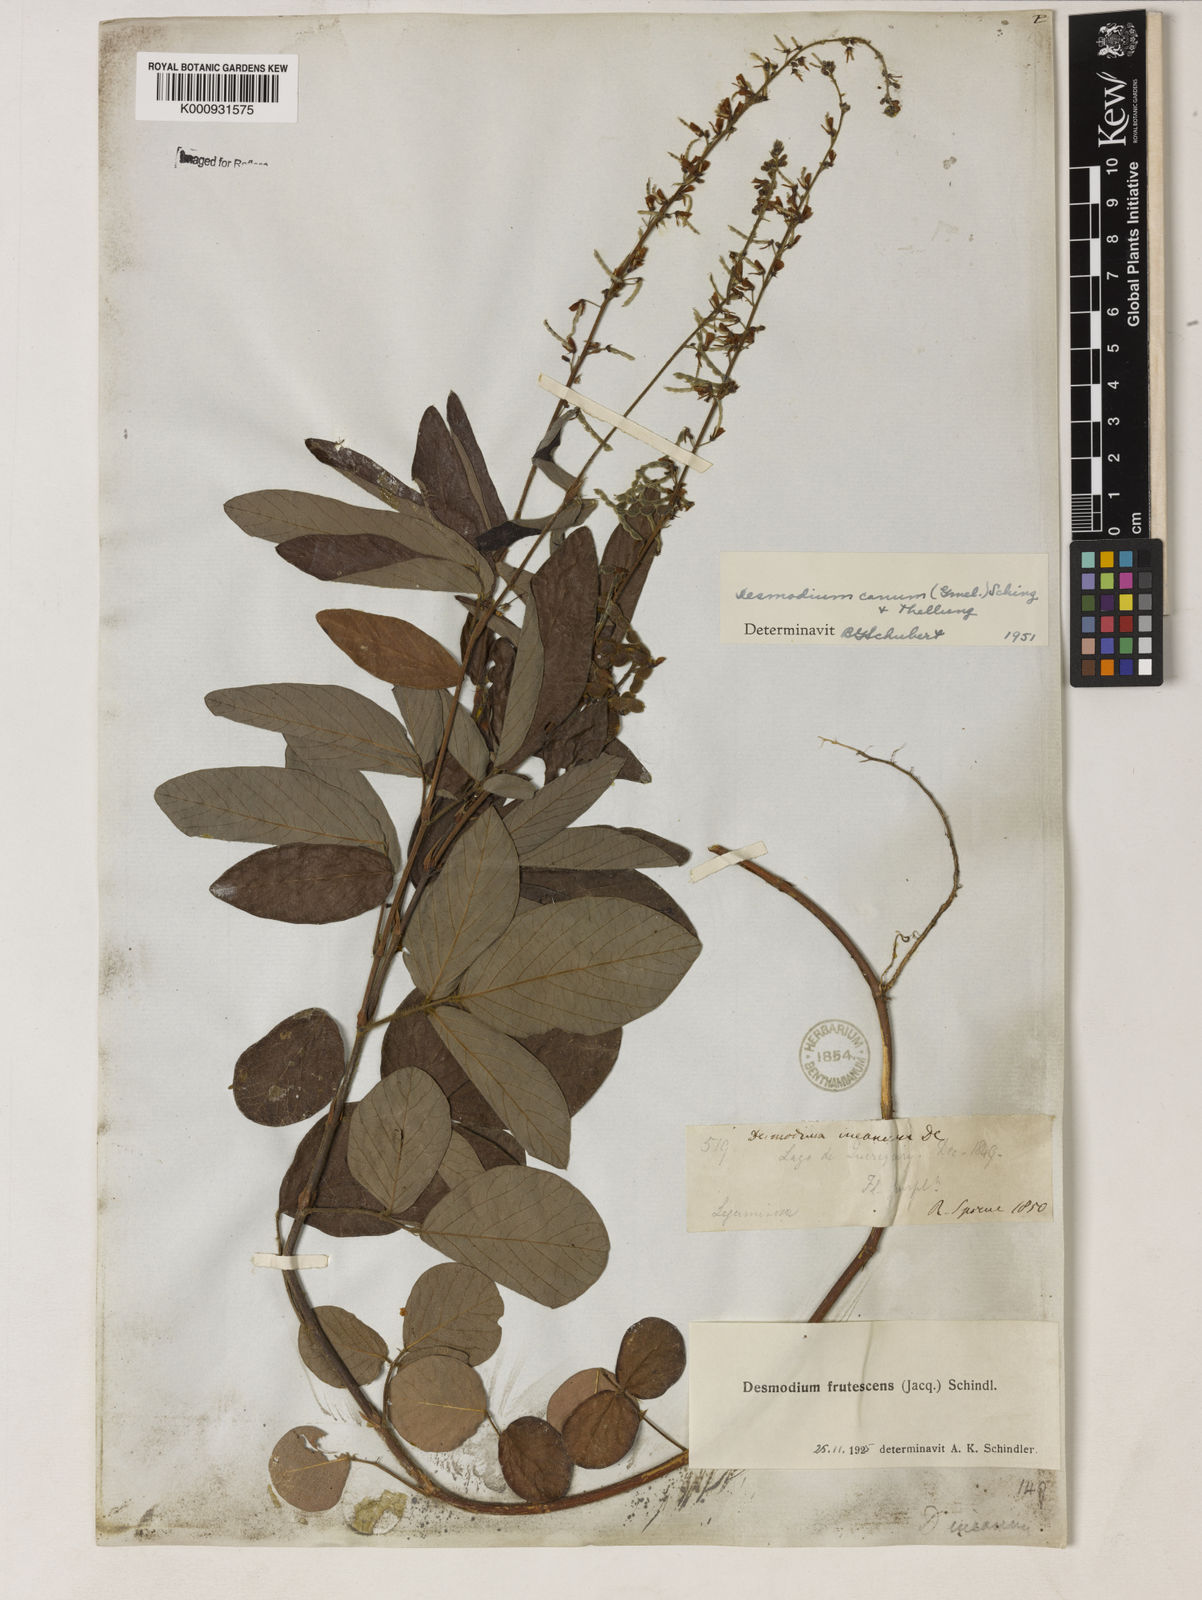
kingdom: Plantae
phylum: Tracheophyta
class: Magnoliopsida
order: Fabales
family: Fabaceae
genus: Desmodium
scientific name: Desmodium incanum
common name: Tickclover
